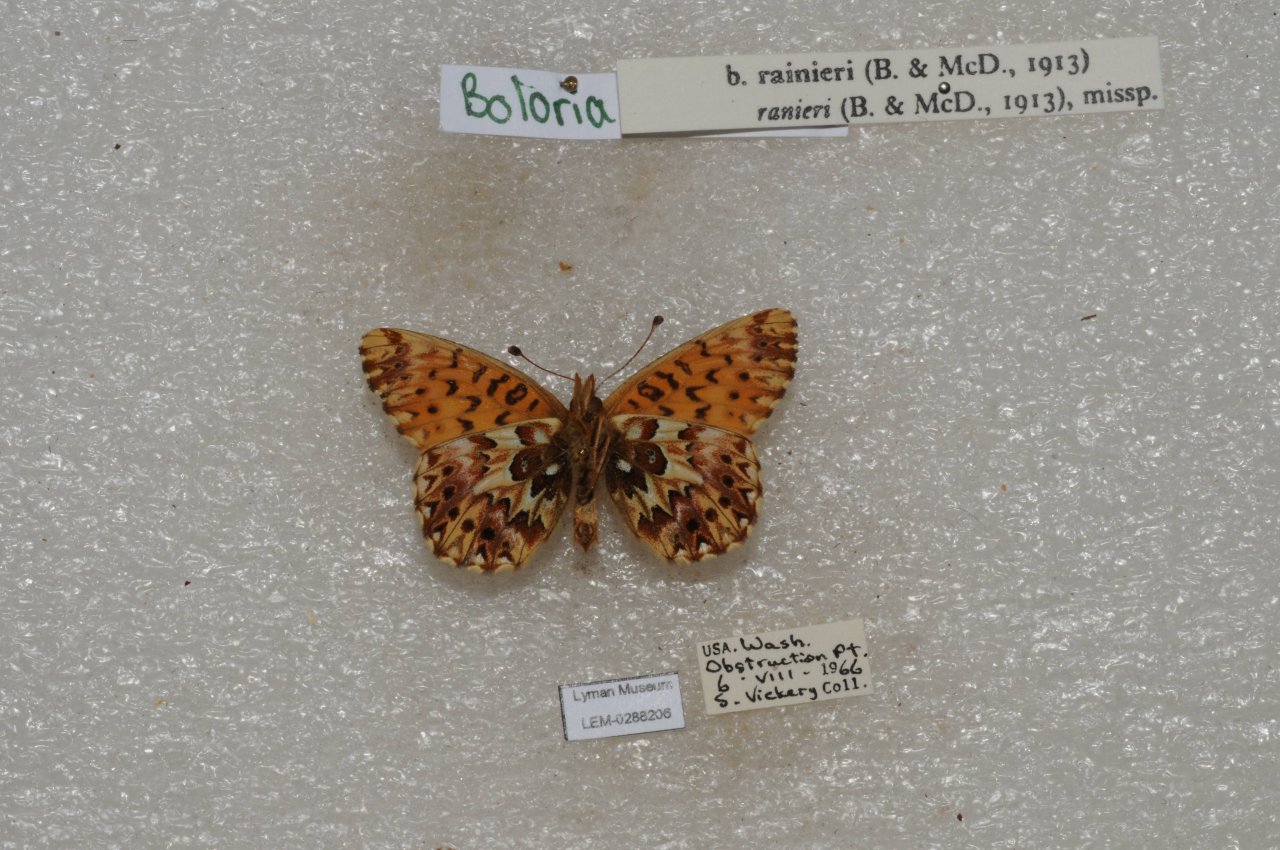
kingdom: Animalia
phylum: Arthropoda
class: Insecta
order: Lepidoptera
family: Nymphalidae
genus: Boloria
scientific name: Boloria chariclea
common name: Arctic Fritillary
